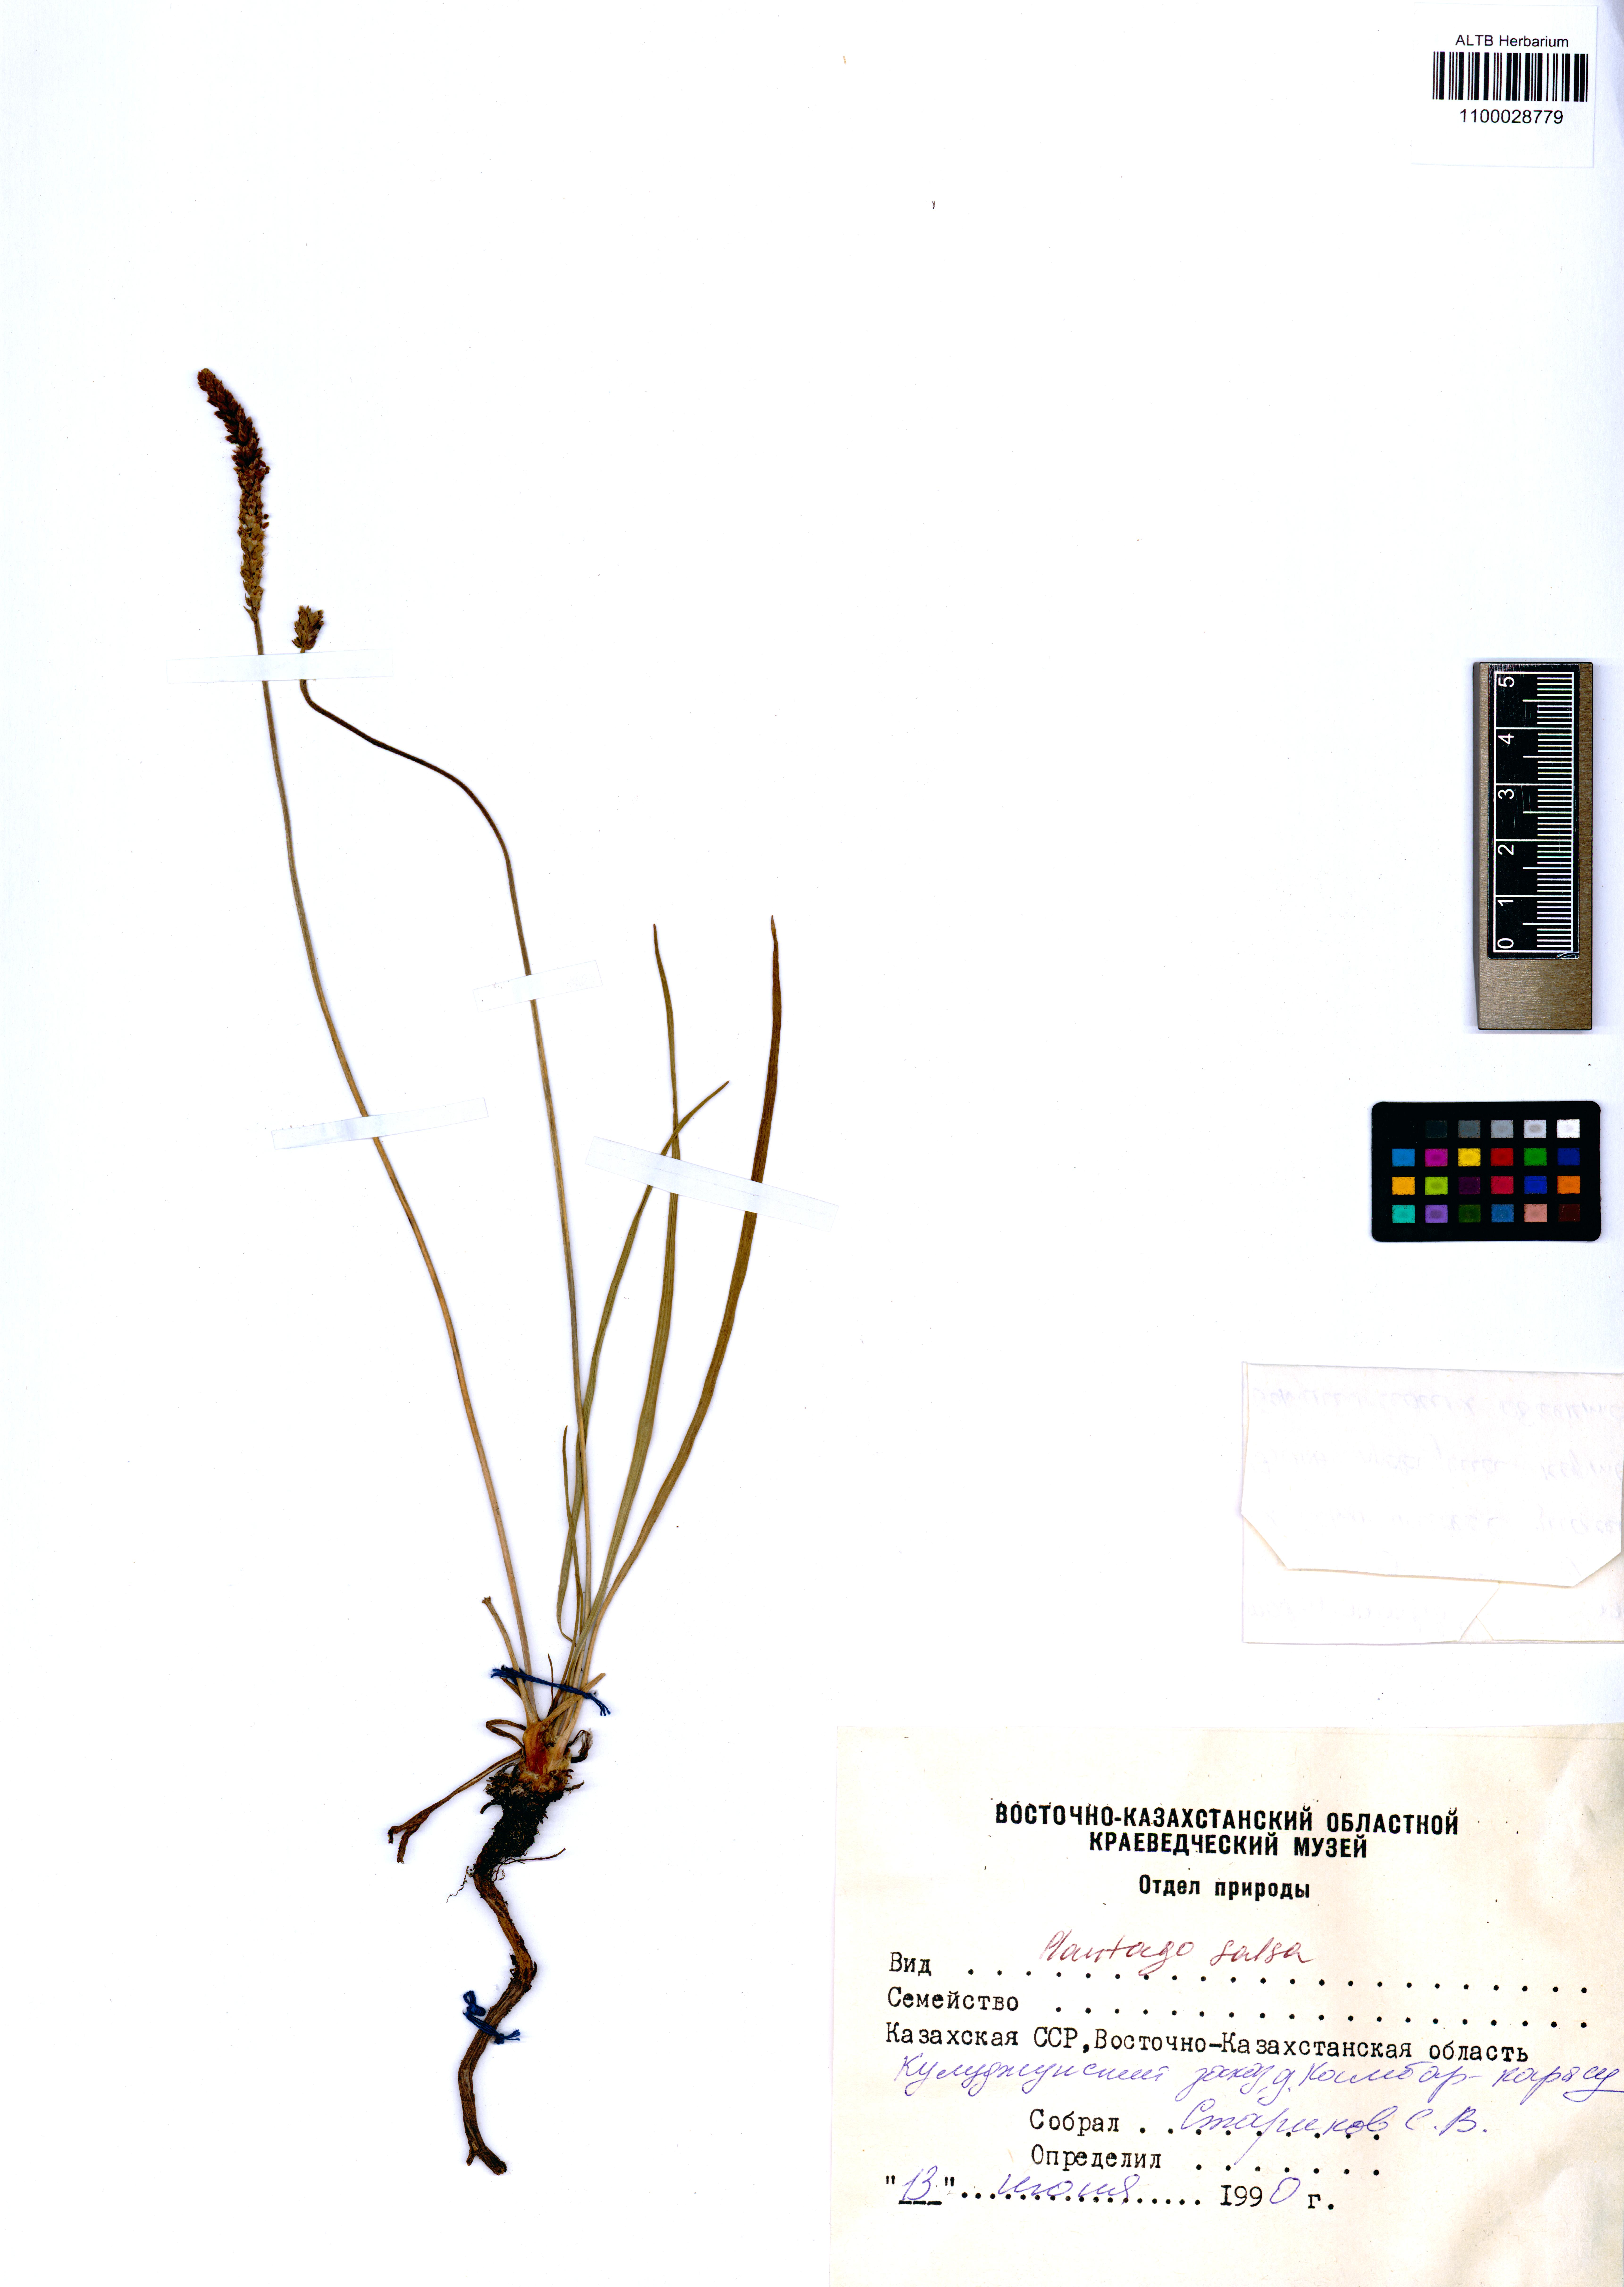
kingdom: Plantae
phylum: Tracheophyta
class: Magnoliopsida
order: Lamiales
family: Plantaginaceae
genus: Plantago
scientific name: Plantago salsa
